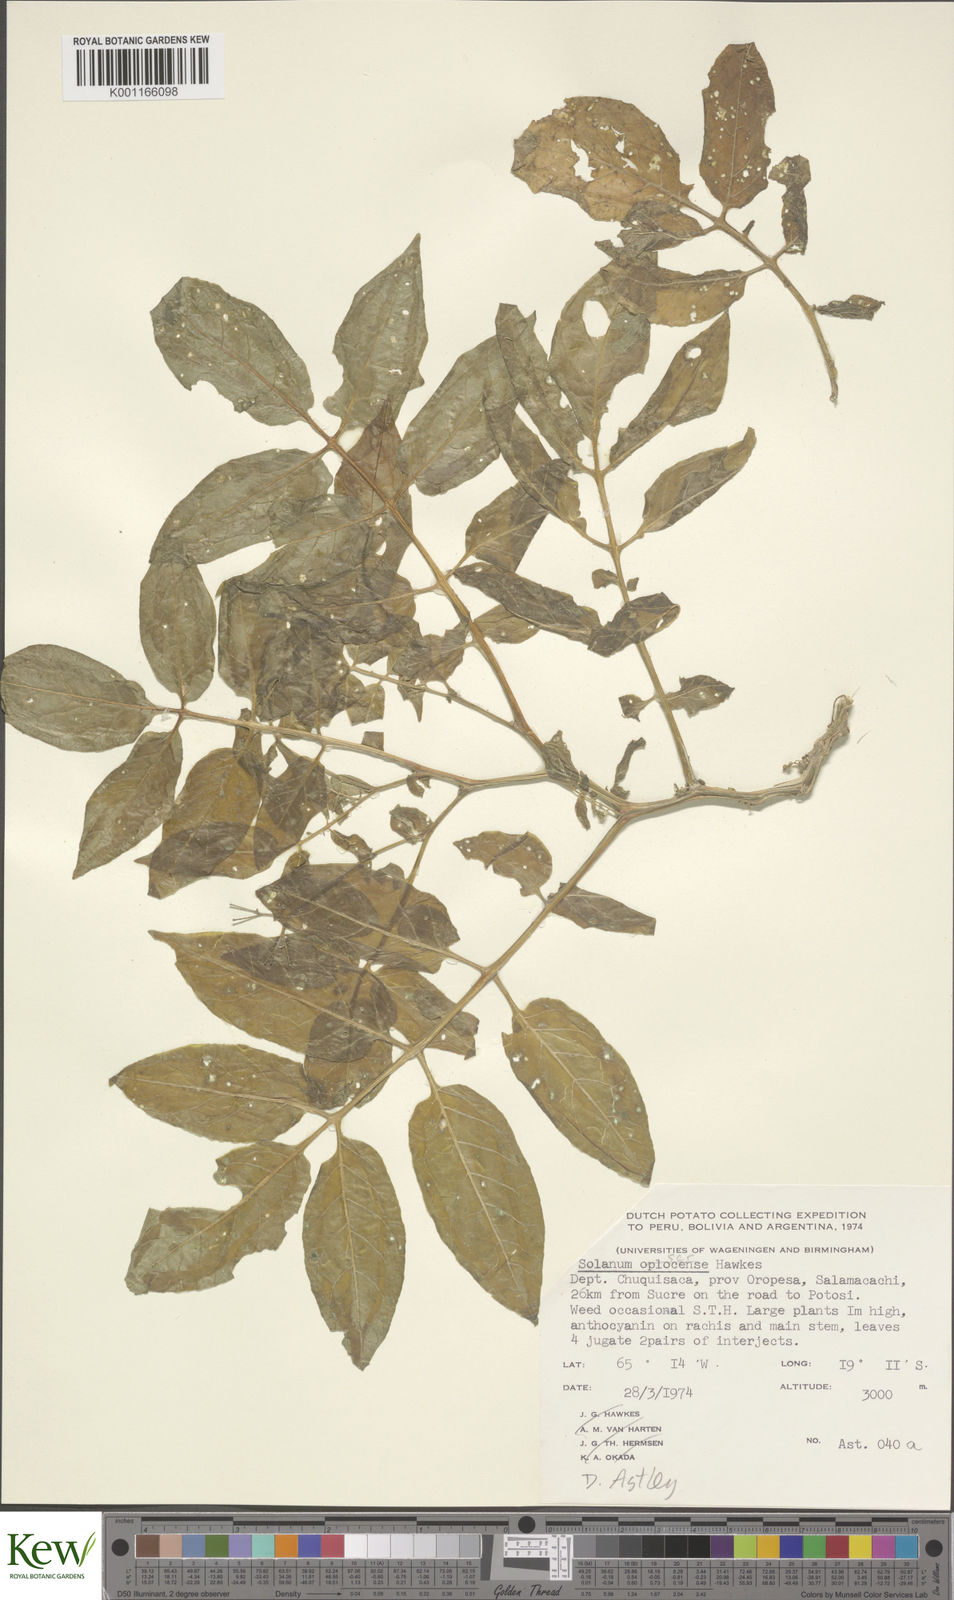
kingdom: Plantae
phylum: Tracheophyta
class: Magnoliopsida
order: Solanales
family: Solanaceae
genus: Solanum
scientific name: Solanum brevicaule
